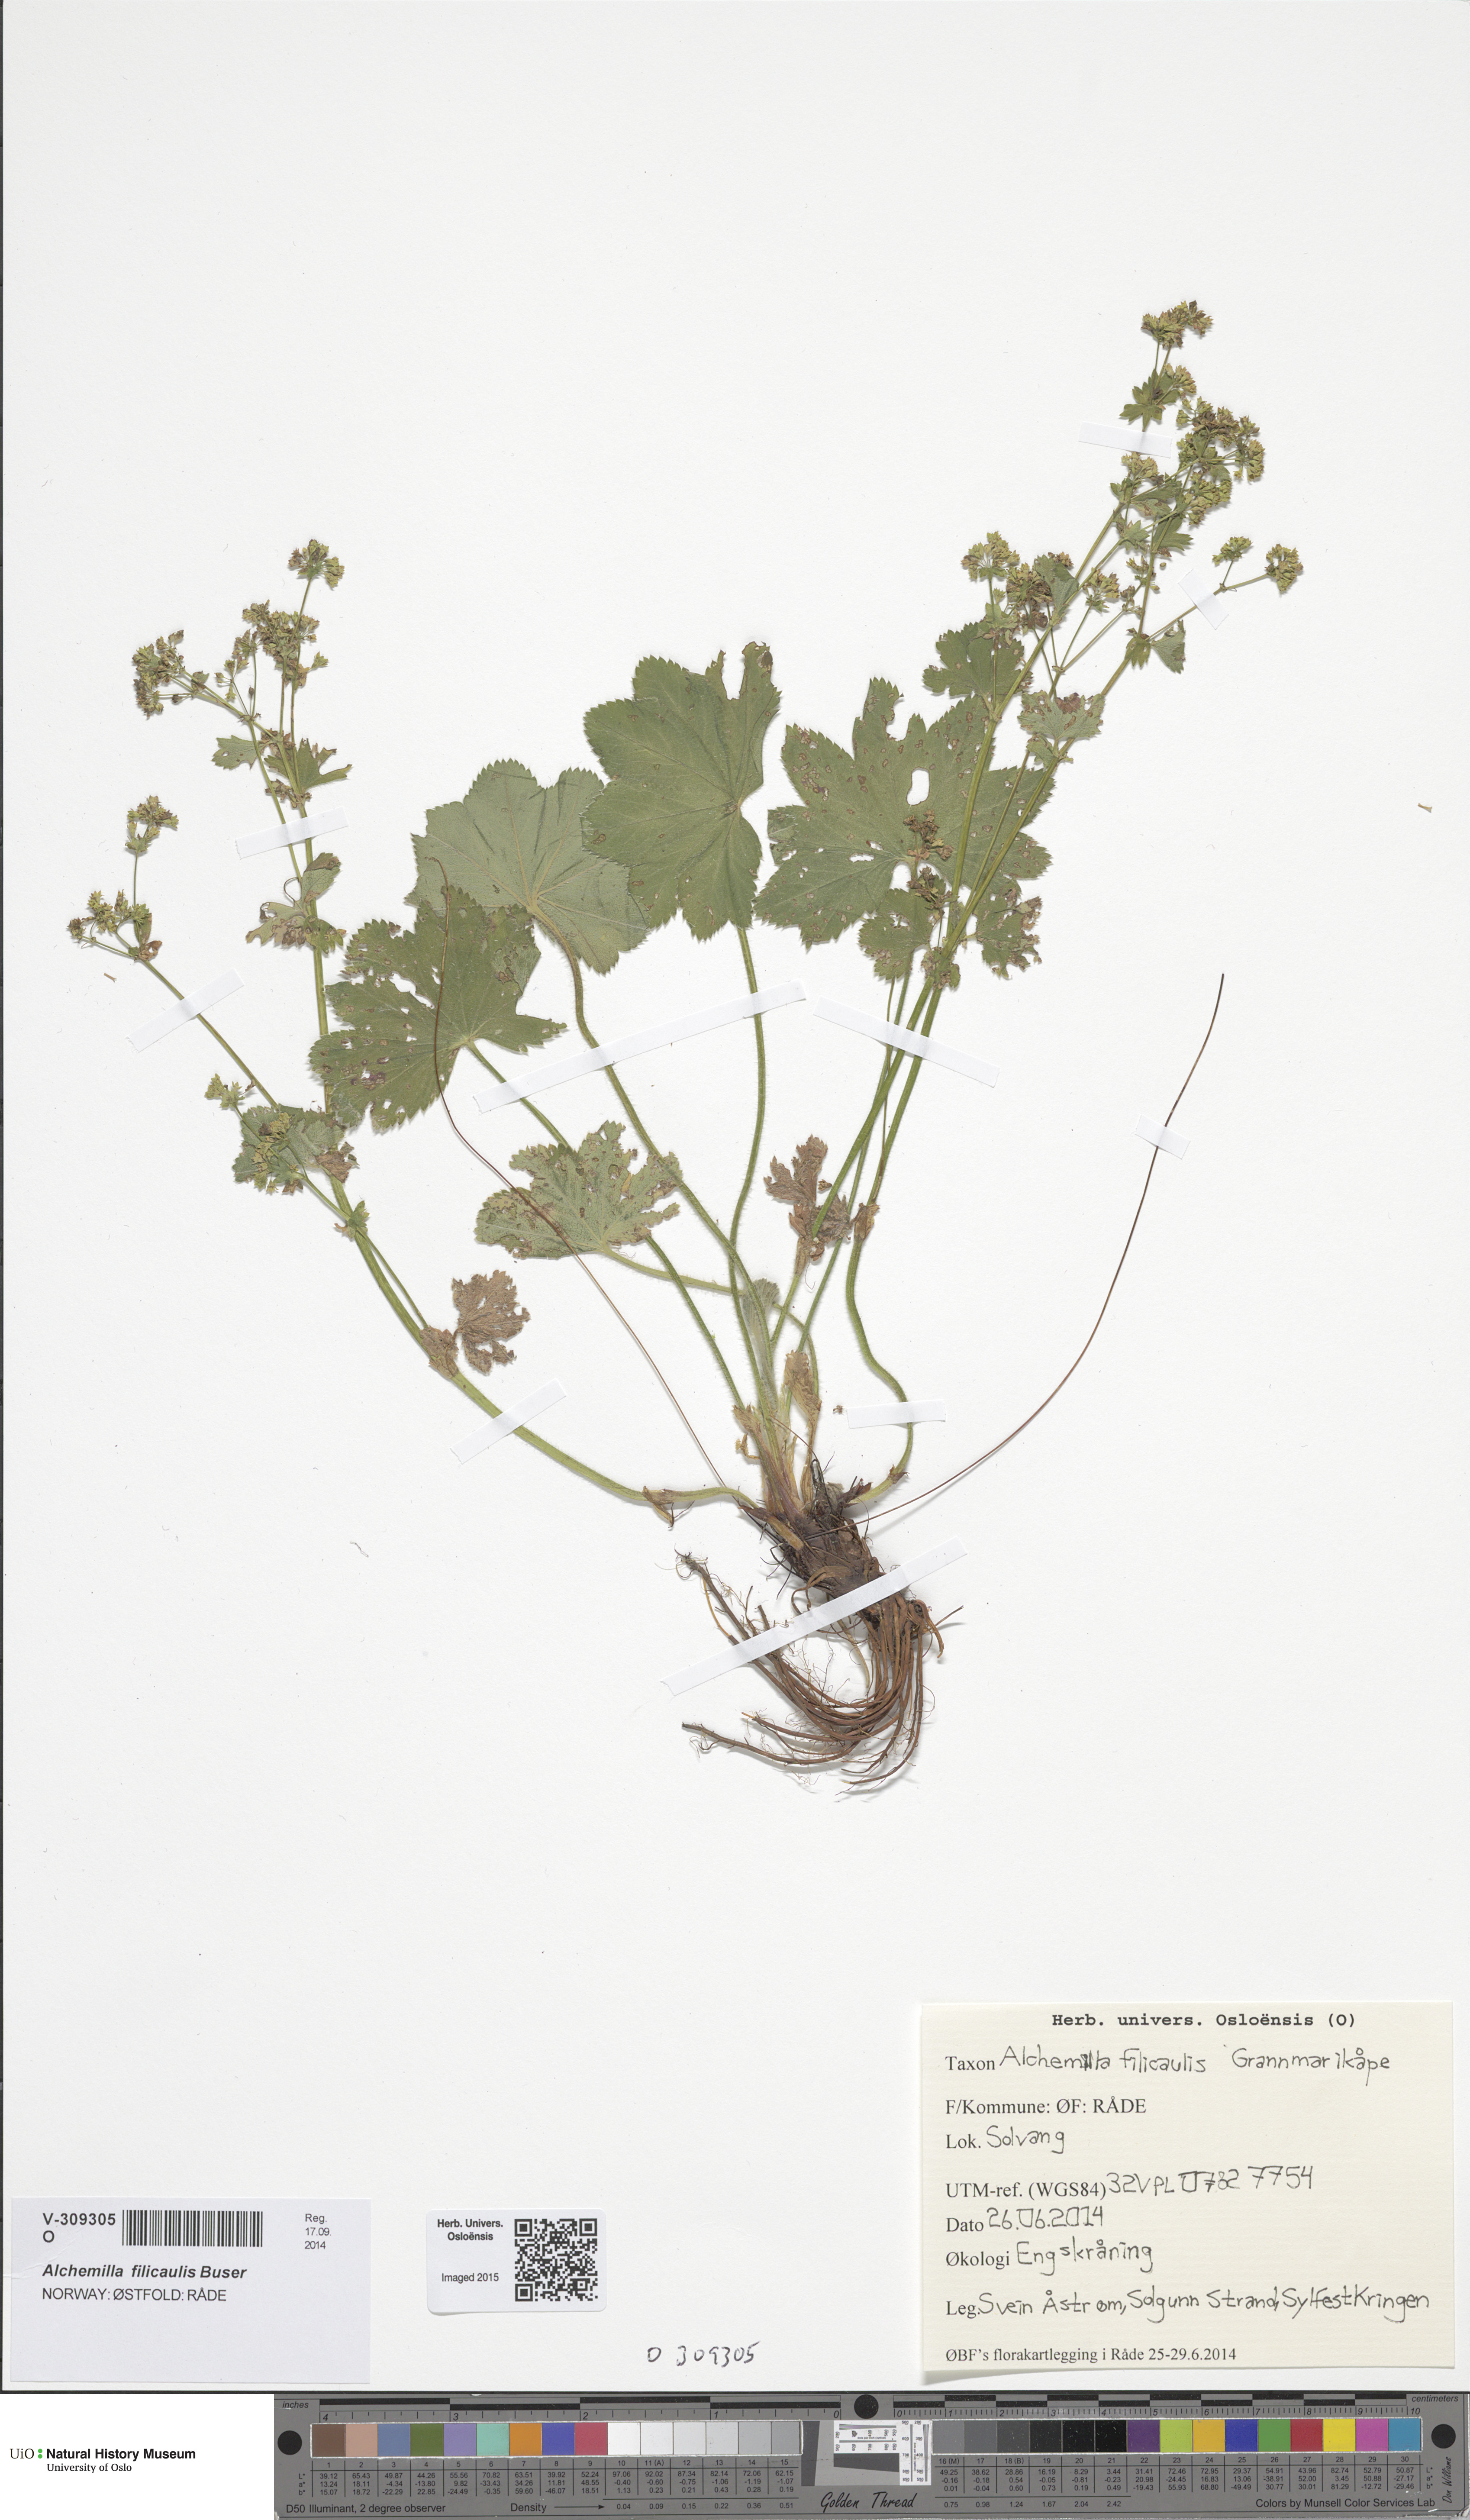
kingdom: Plantae
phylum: Tracheophyta
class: Magnoliopsida
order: Rosales
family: Rosaceae
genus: Alchemilla
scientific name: Alchemilla filicaulis
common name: Hairy lady's-mantle
